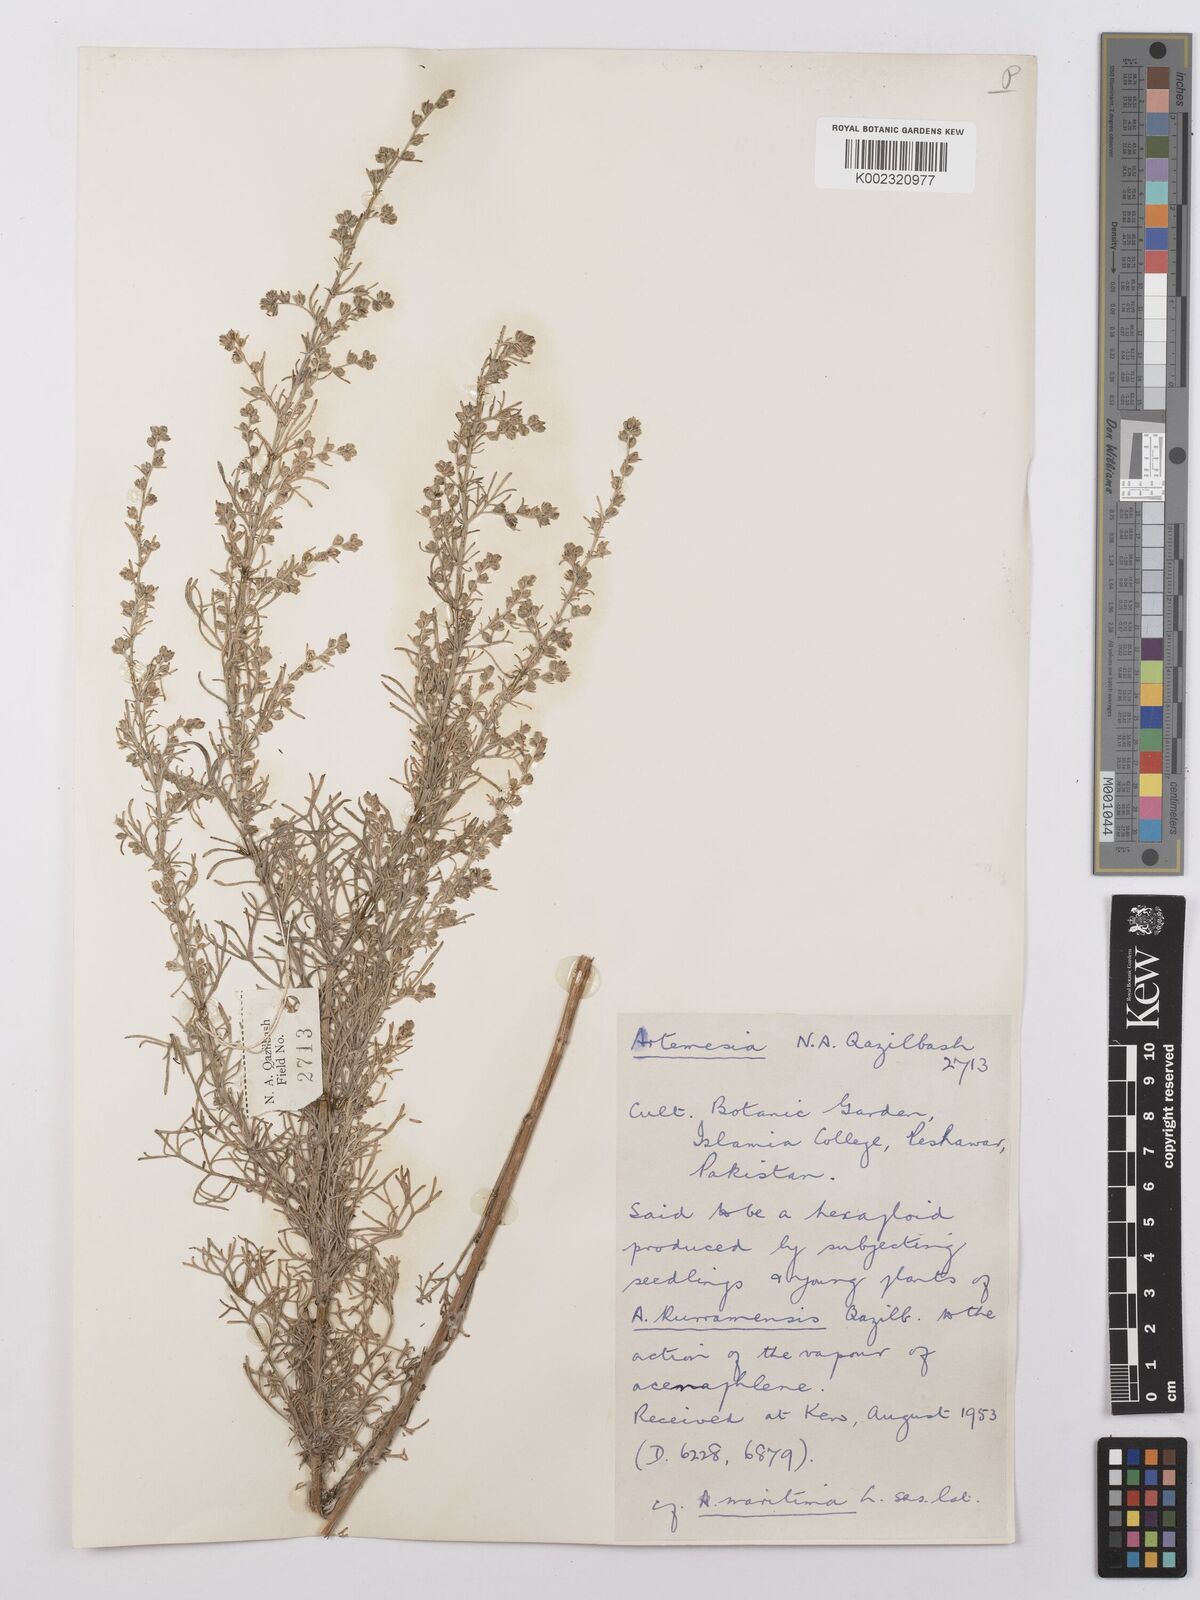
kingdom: Plantae
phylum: Tracheophyta
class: Magnoliopsida
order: Asterales
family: Asteraceae
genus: Artemisia
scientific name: Artemisia
